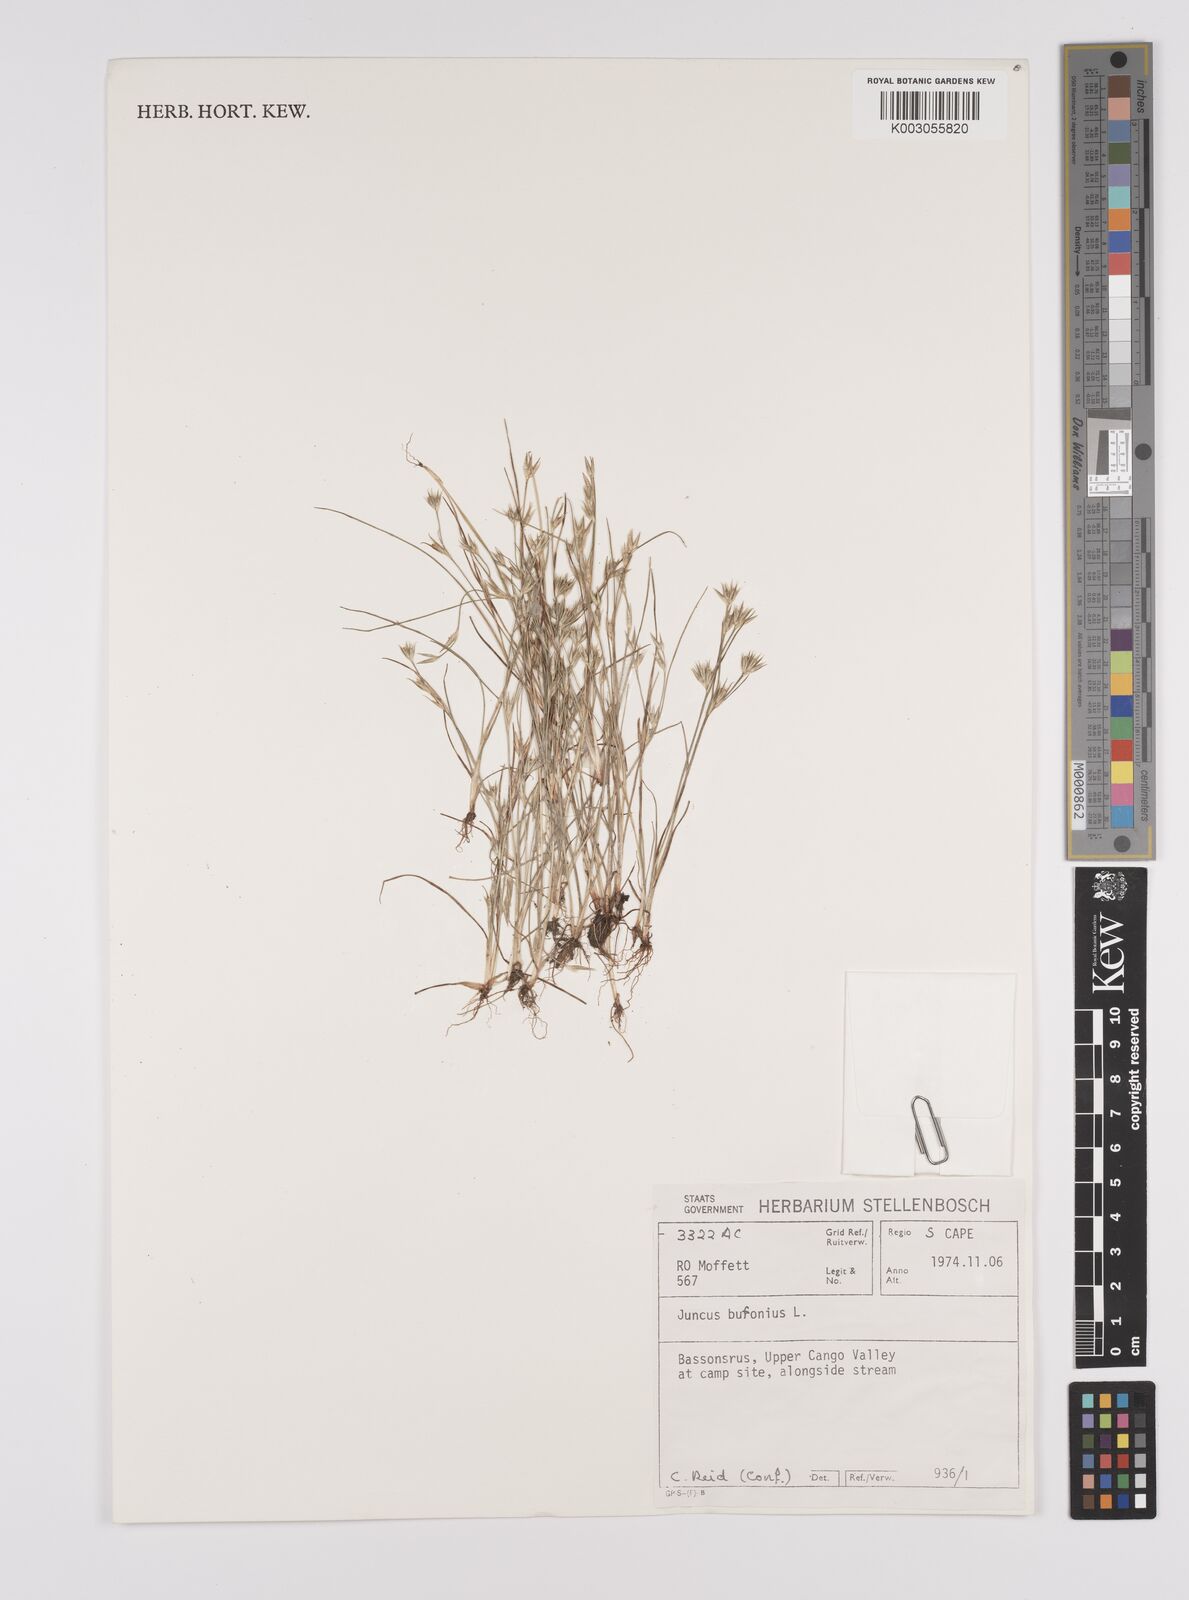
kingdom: Plantae
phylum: Tracheophyta
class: Liliopsida
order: Poales
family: Juncaceae
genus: Juncus
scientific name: Juncus bufonius
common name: Toad rush
